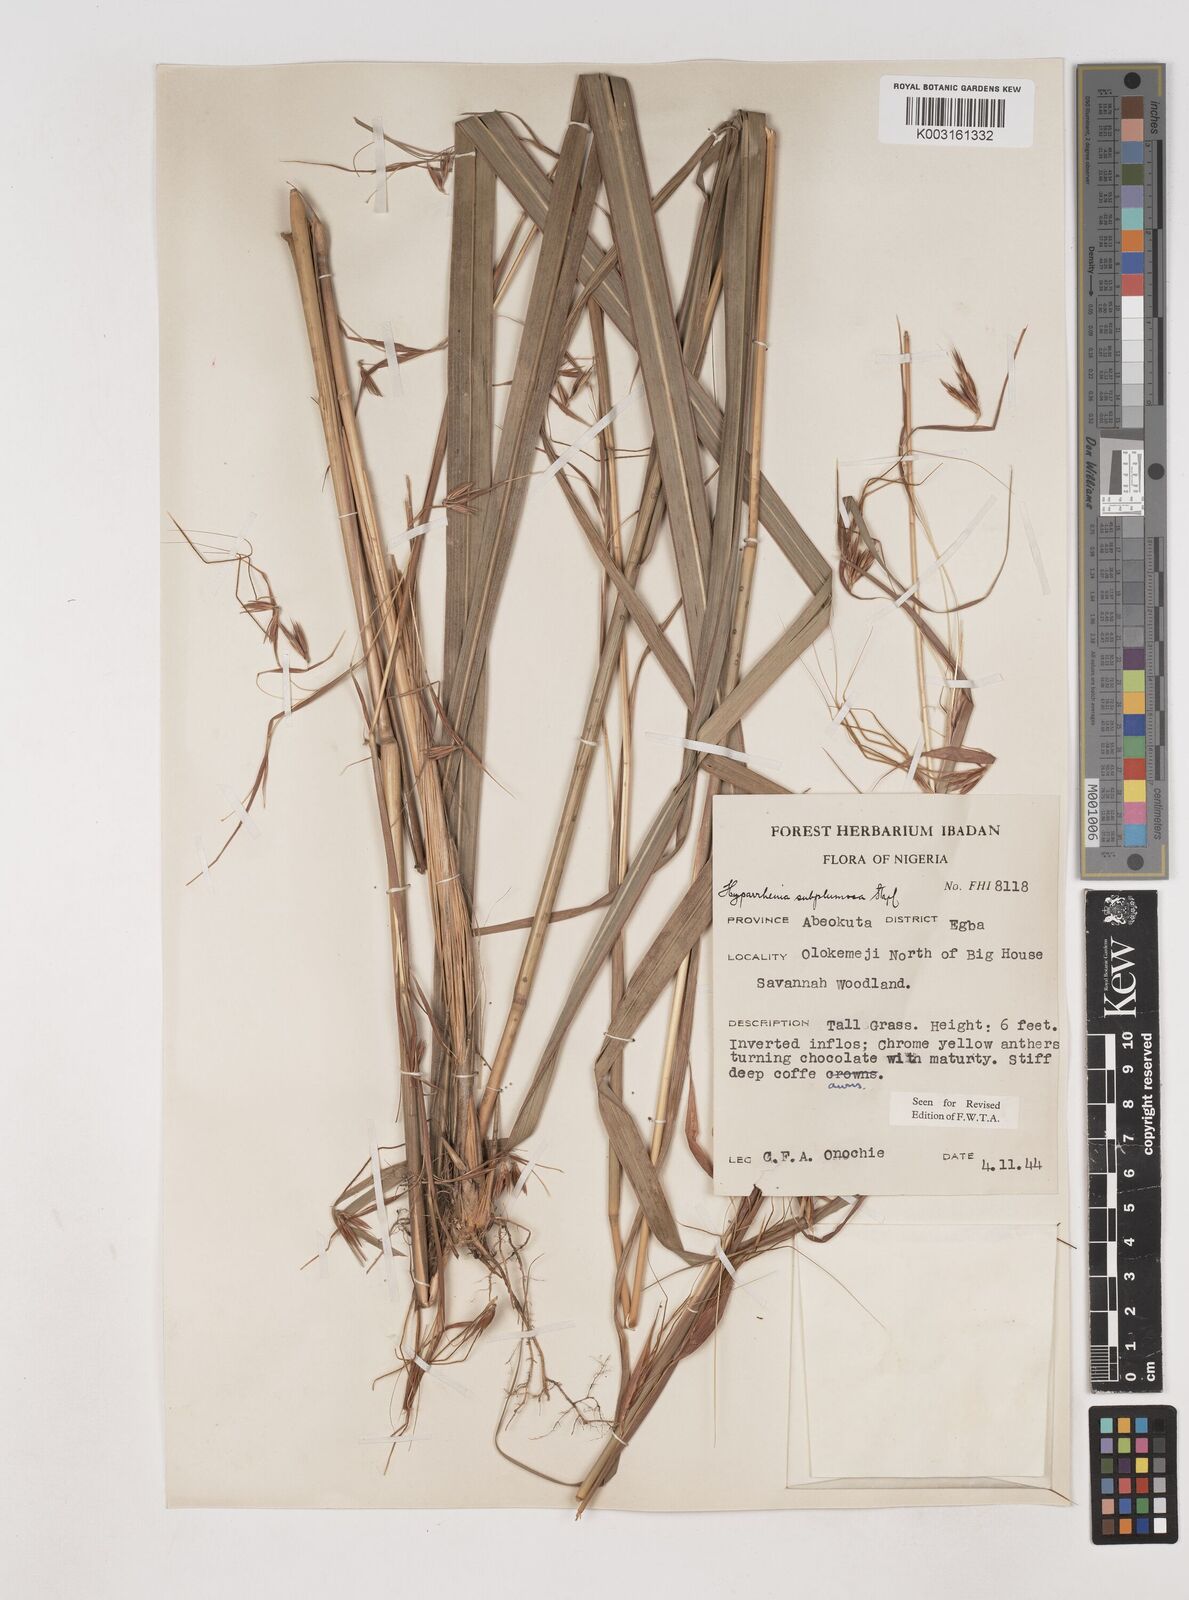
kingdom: Plantae
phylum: Tracheophyta
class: Liliopsida
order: Poales
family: Poaceae
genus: Hyparrhenia
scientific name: Hyparrhenia subplumosa
